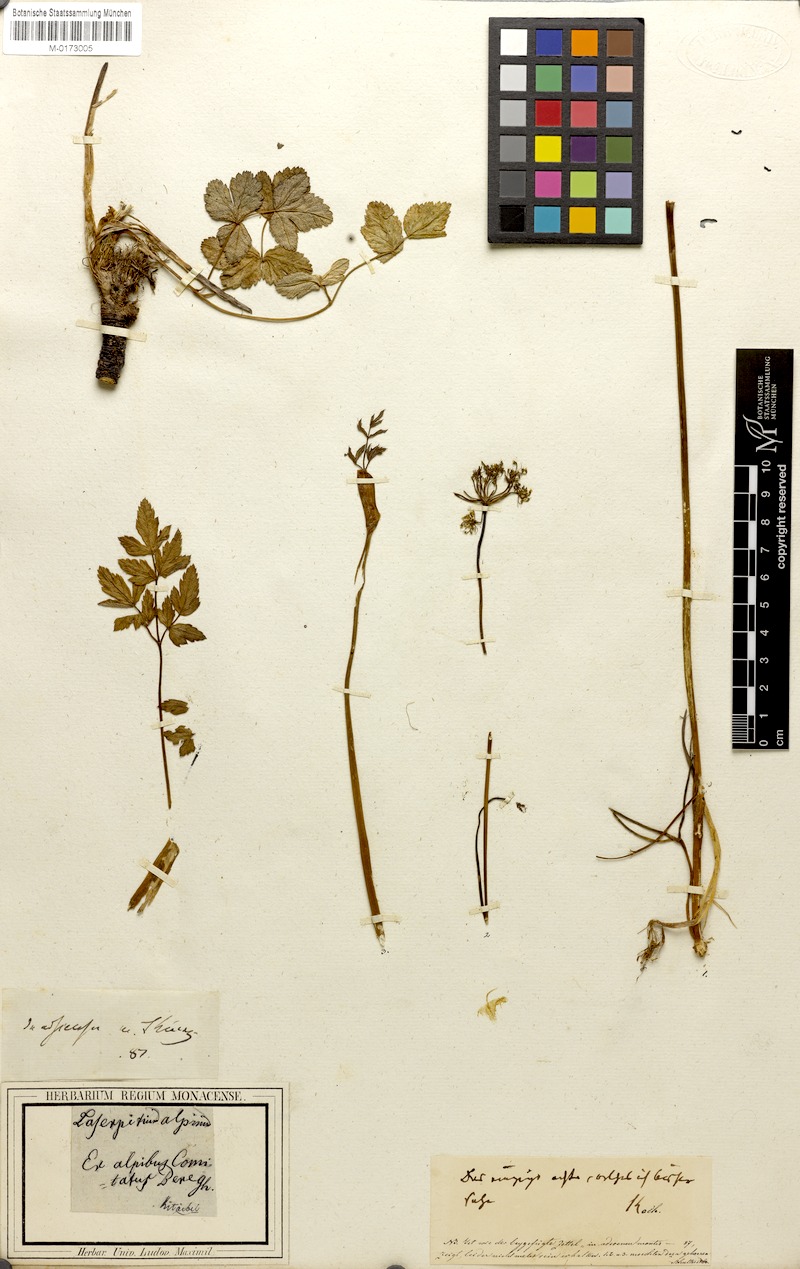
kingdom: Plantae
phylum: Tracheophyta
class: Magnoliopsida
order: Apiales
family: Apiaceae
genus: Laserpitium
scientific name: Laserpitium krapffii
